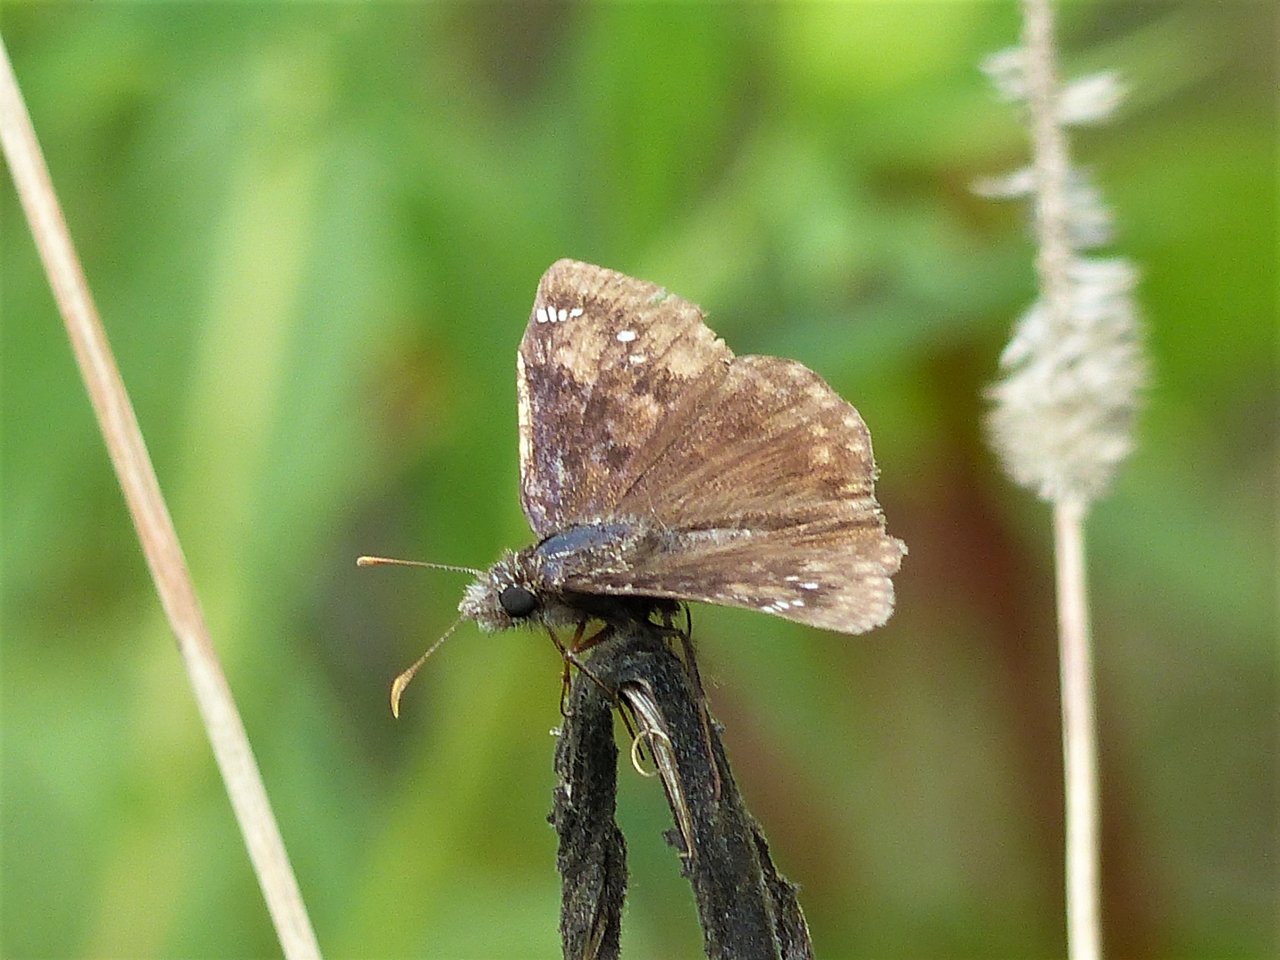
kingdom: Animalia
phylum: Arthropoda
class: Insecta
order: Lepidoptera
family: Hesperiidae
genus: Gesta
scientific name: Gesta
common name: Wild Indigo Duskywing
